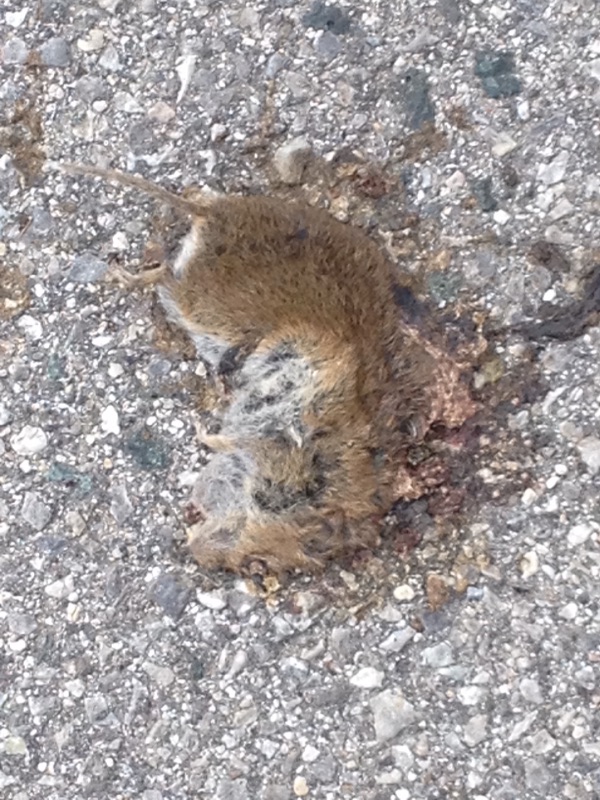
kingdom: Animalia
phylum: Chordata
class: Mammalia
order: Rodentia
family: Cricetidae
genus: Microtus
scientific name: Microtus
